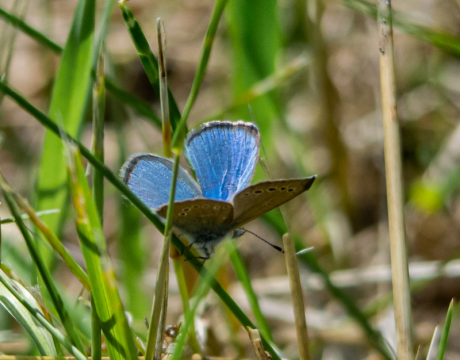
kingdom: Animalia
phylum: Arthropoda
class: Insecta
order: Lepidoptera
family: Lycaenidae
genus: Glaucopsyche
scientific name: Glaucopsyche lygdamus
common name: Silvery Blue
